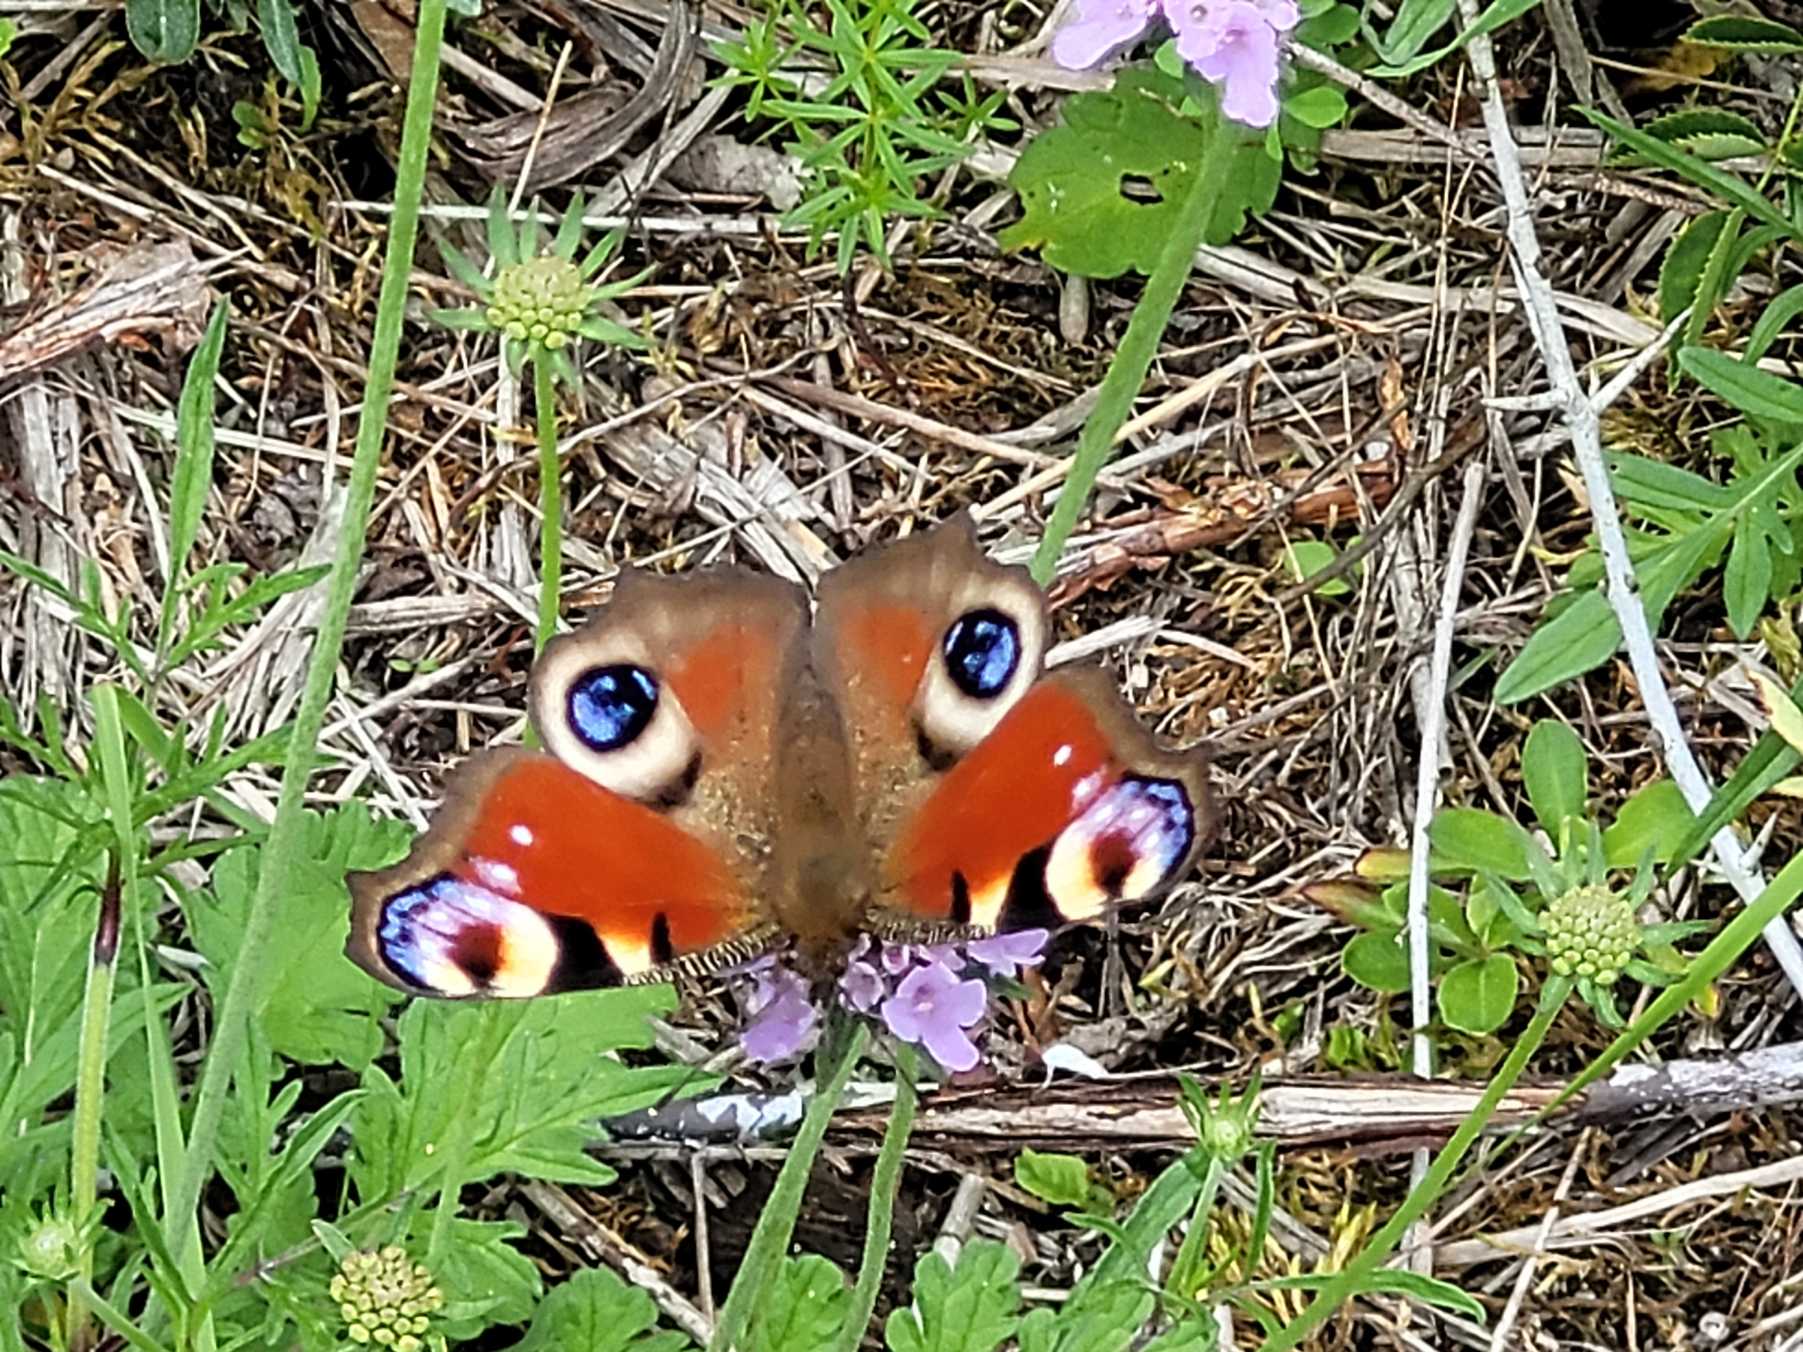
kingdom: Animalia
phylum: Arthropoda
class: Insecta
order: Lepidoptera
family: Nymphalidae
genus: Aglais
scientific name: Aglais io
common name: Dagpåfugleøje
